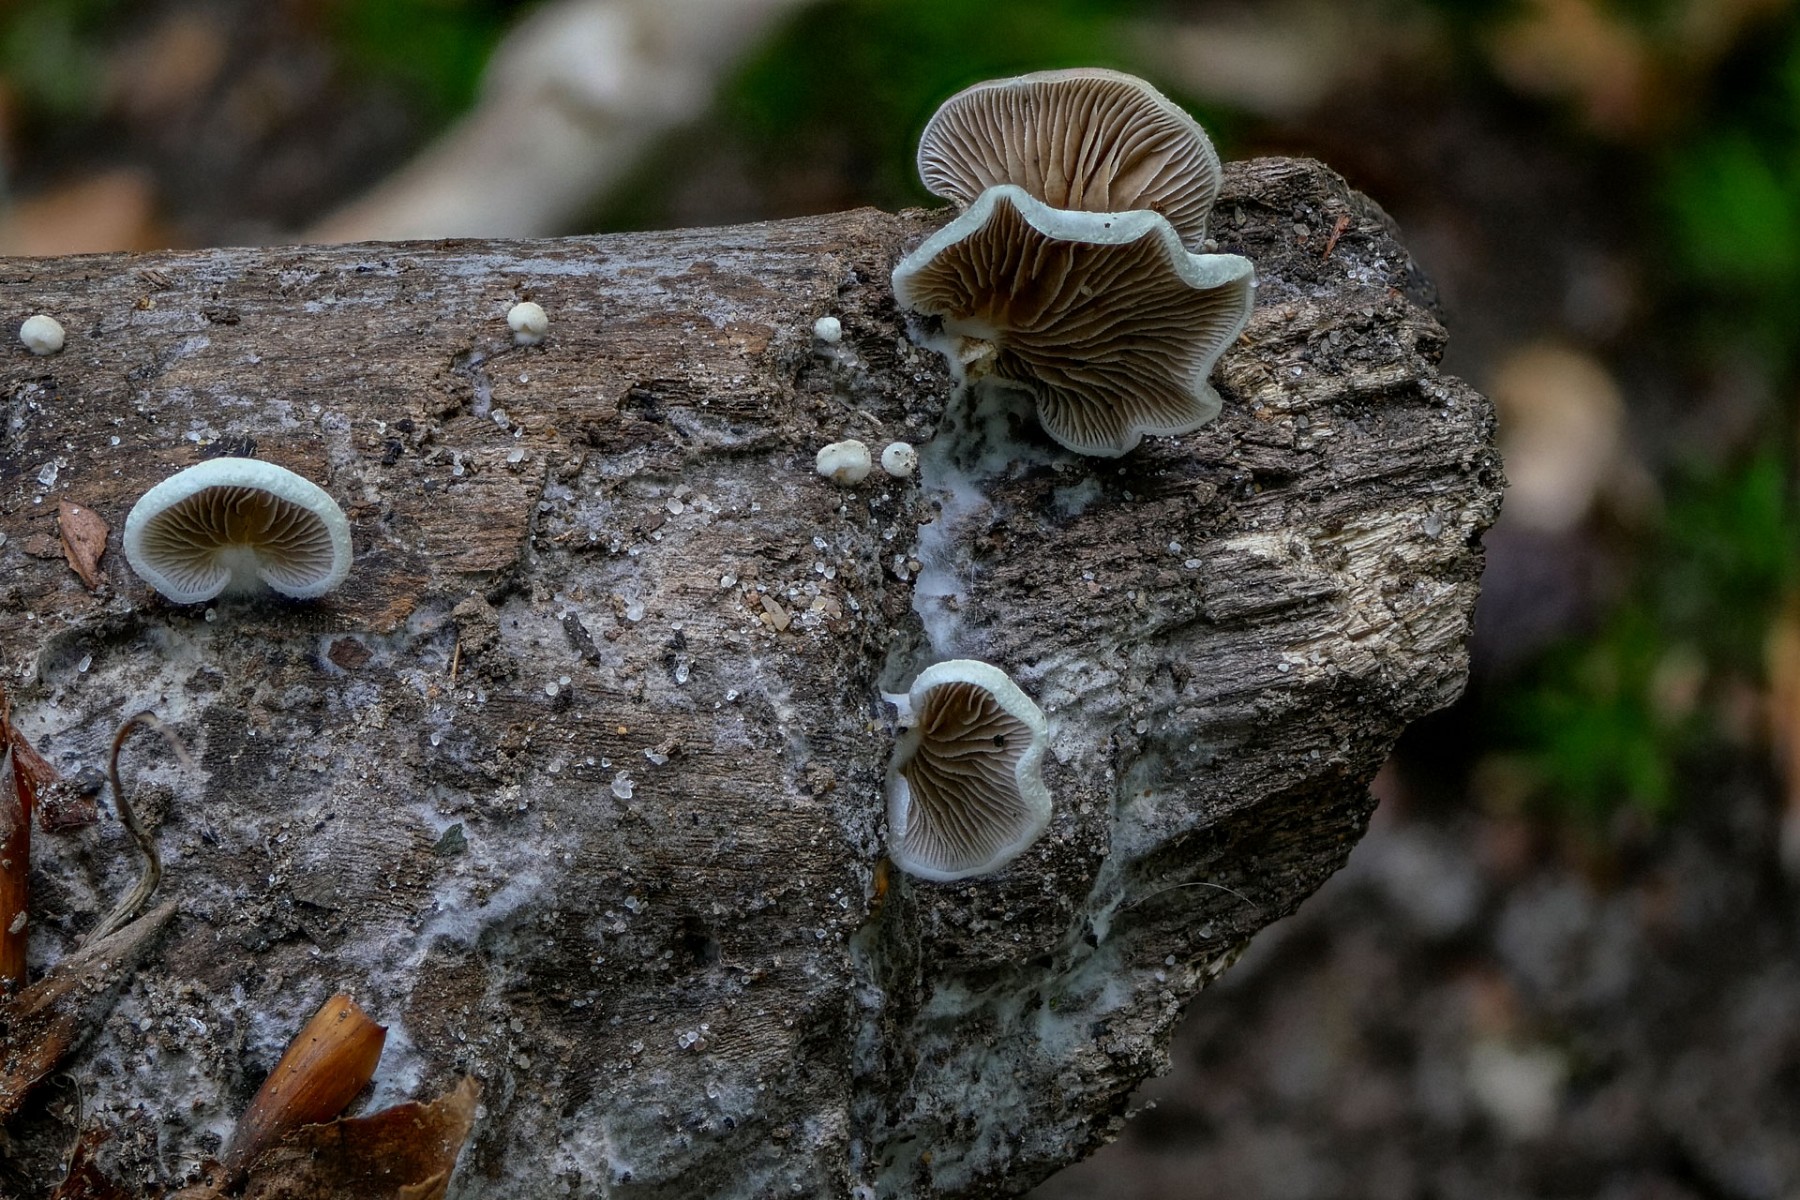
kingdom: Fungi
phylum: Basidiomycota
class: Agaricomycetes
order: Agaricales
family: Crepidotaceae
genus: Crepidotus
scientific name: Crepidotus mollis
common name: blød muslingesvamp
